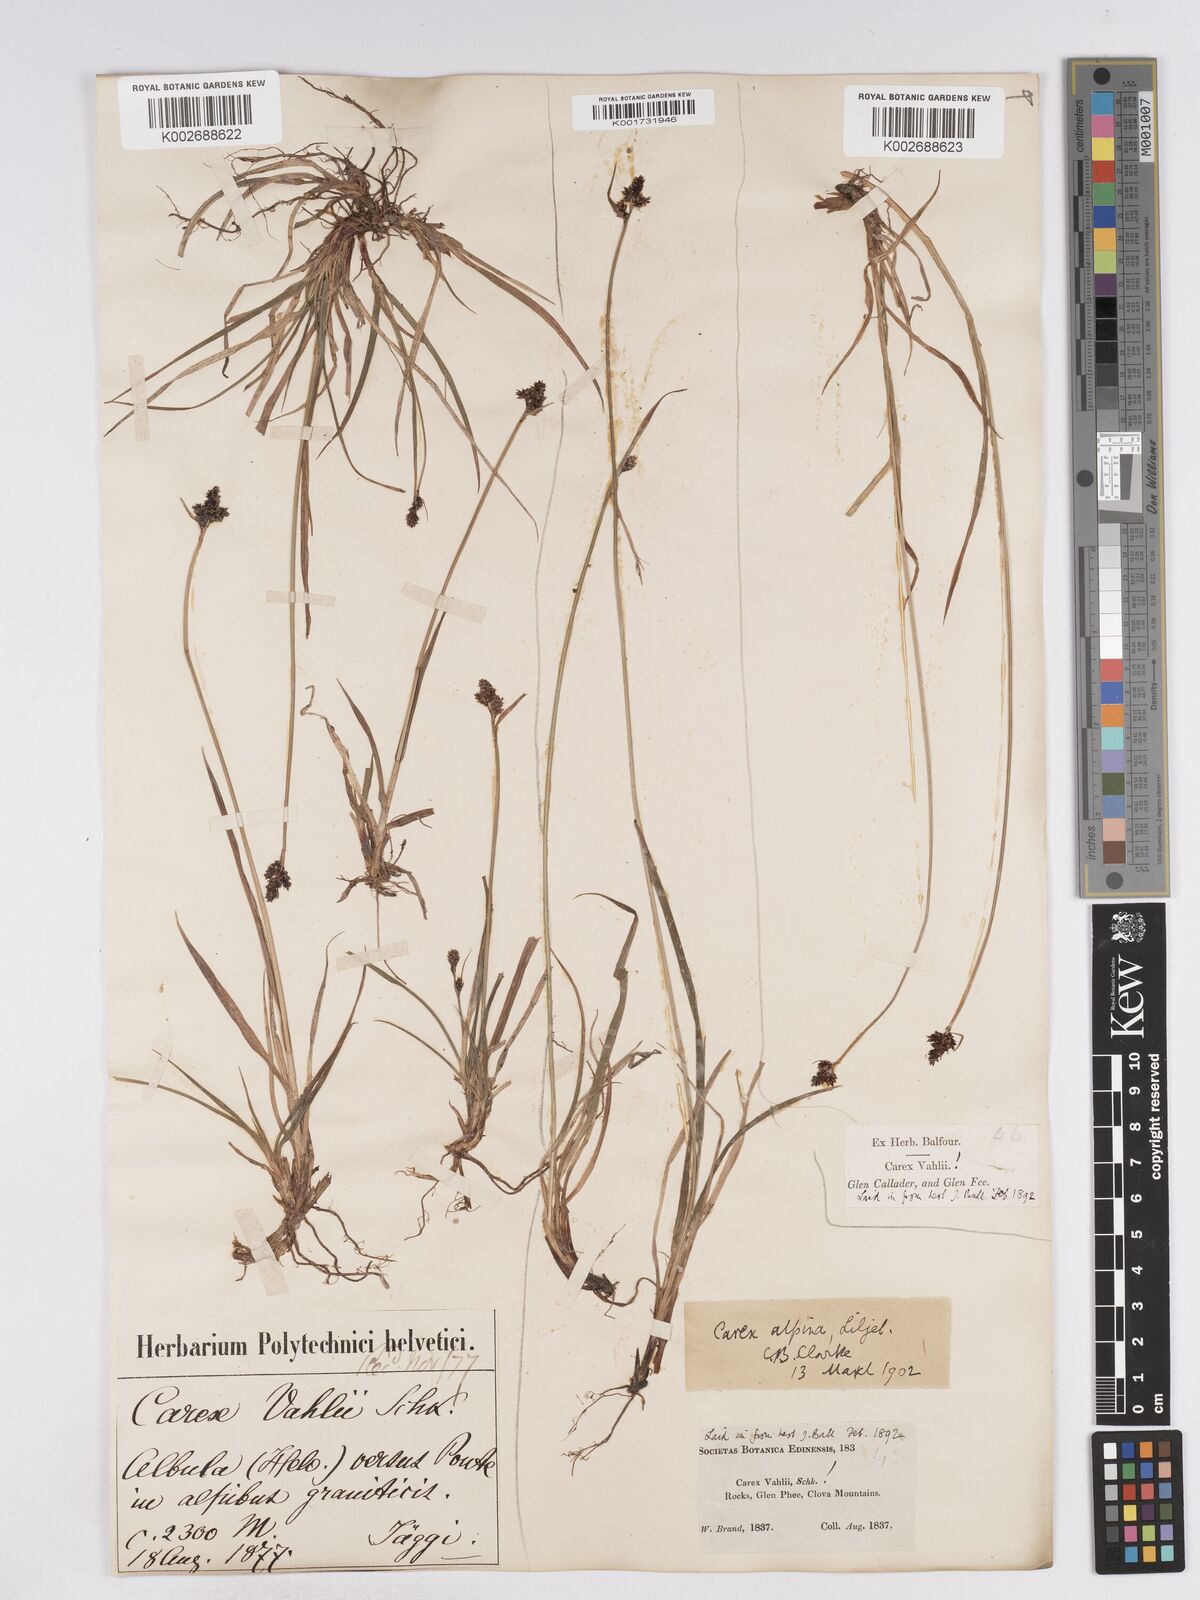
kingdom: Plantae
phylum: Tracheophyta
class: Liliopsida
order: Poales
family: Cyperaceae
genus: Carex
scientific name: Carex norvegica
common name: Close-headed alpine-sedge
